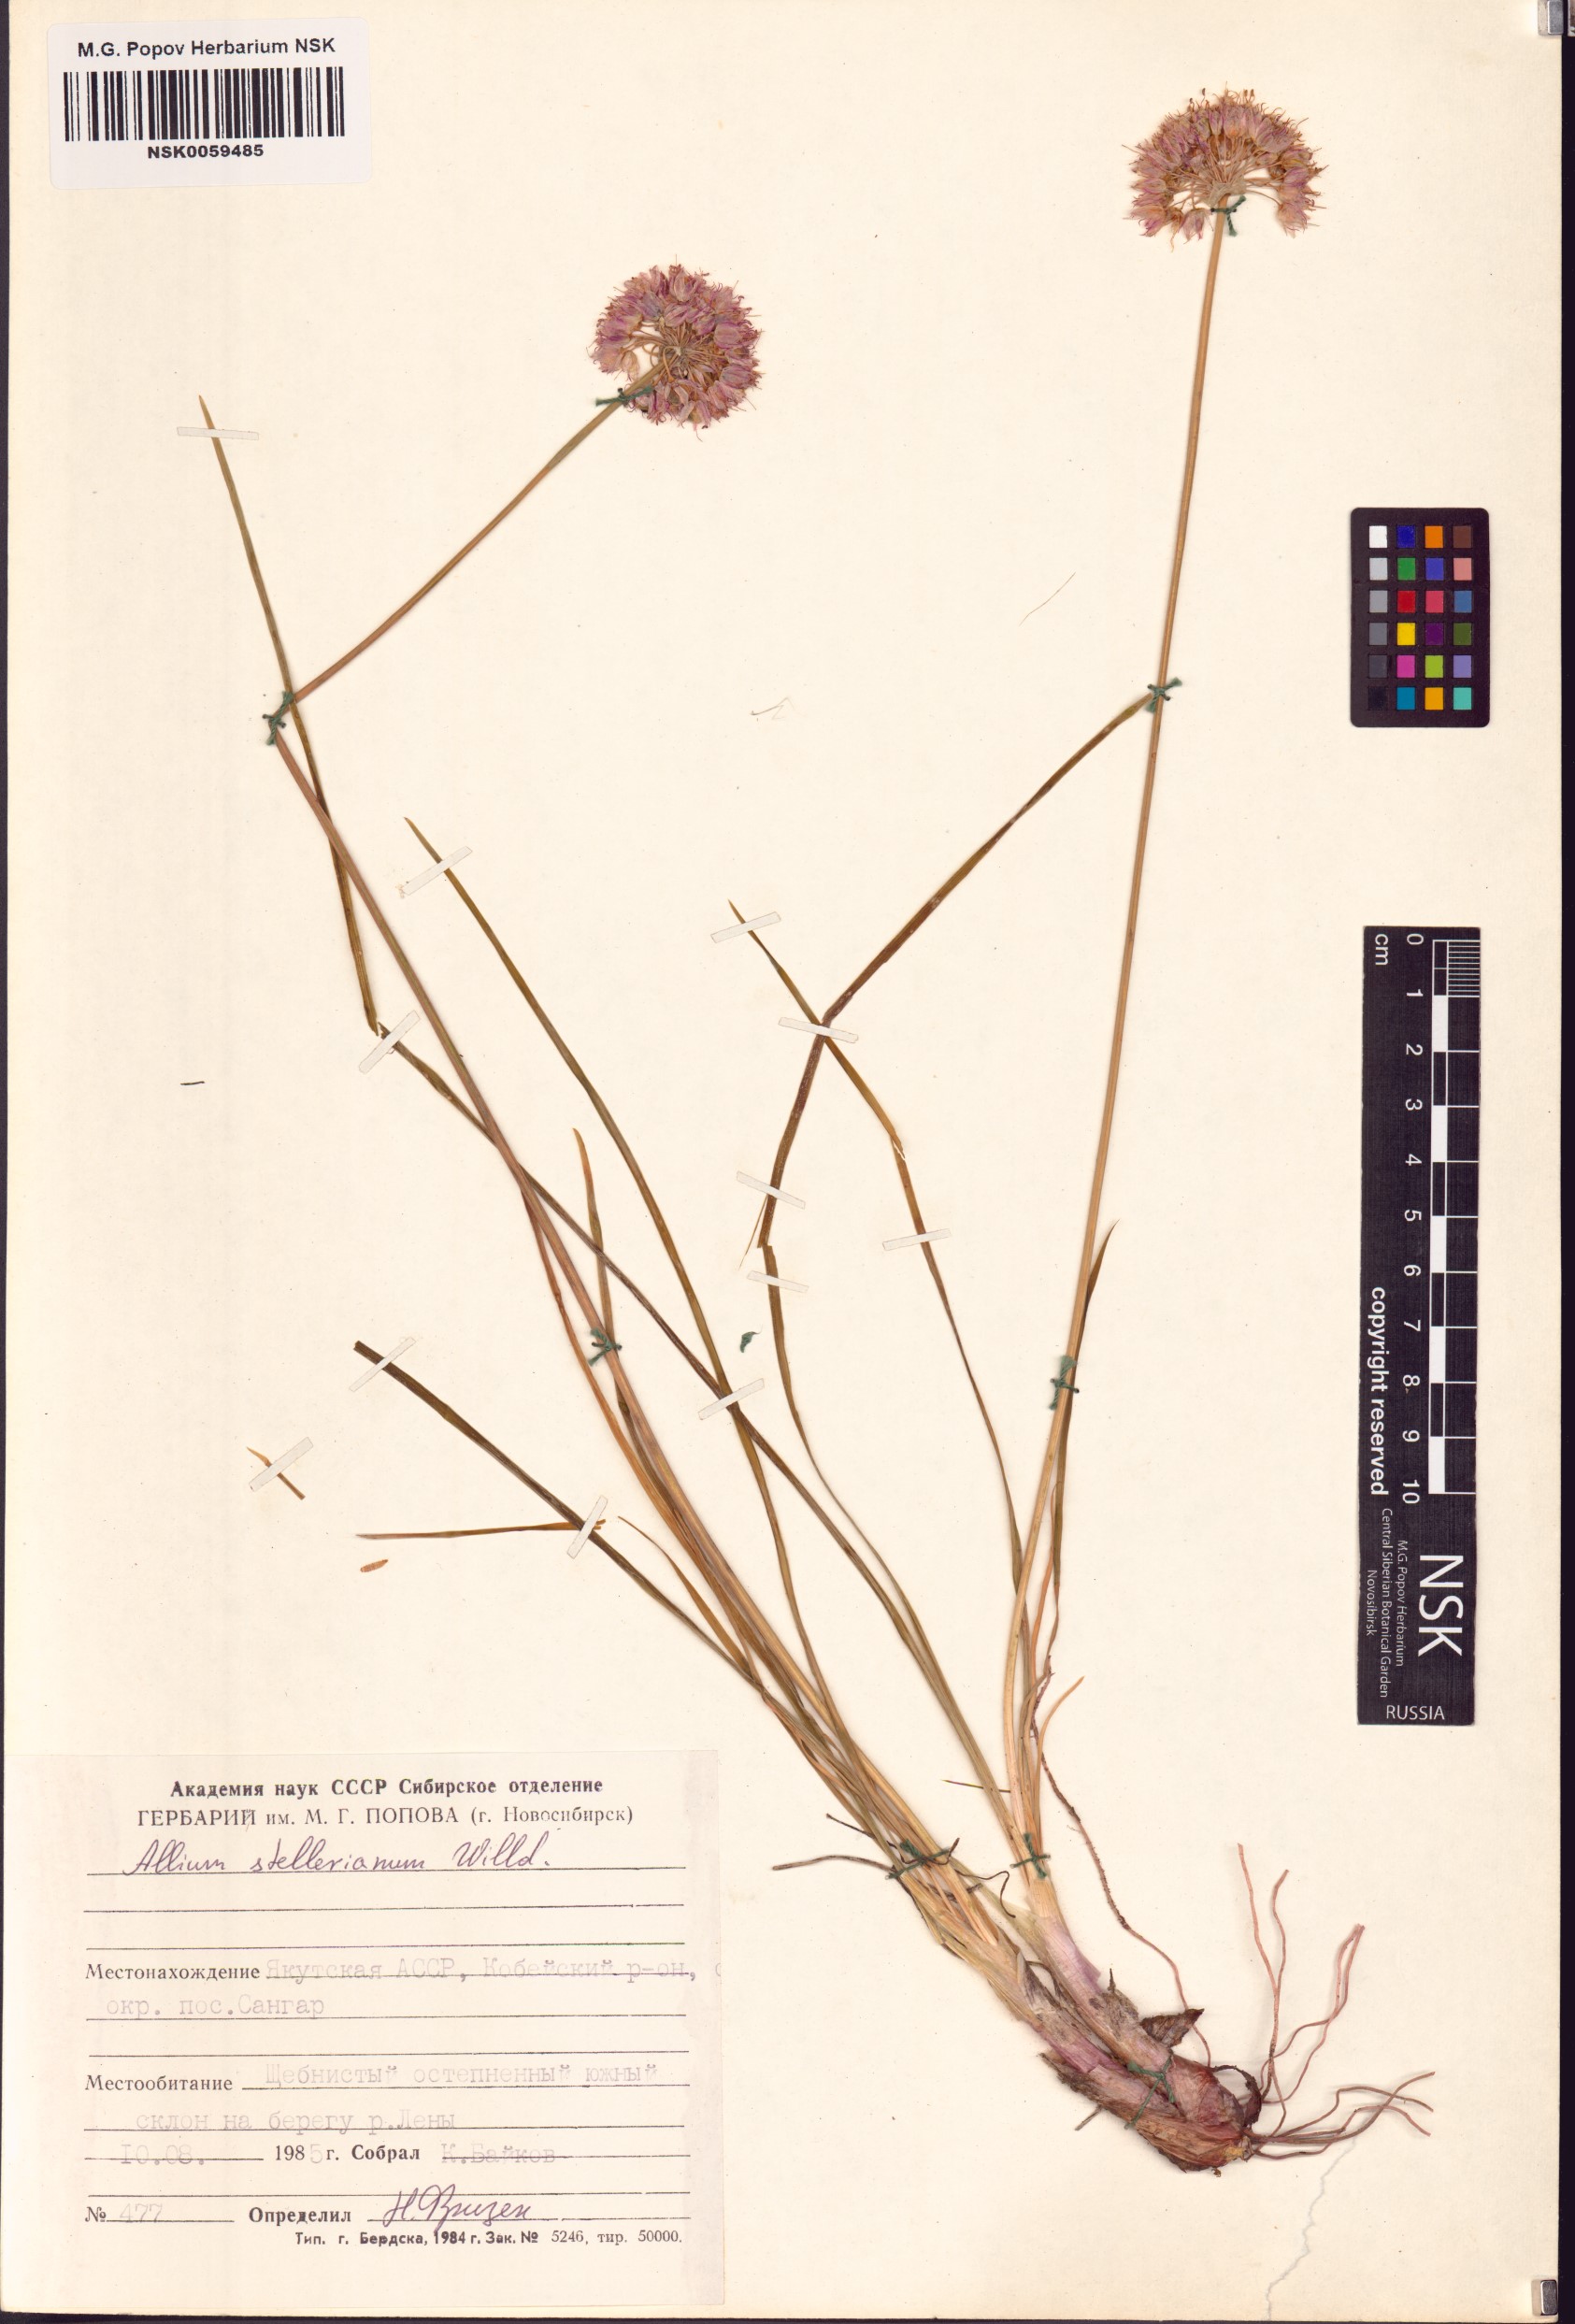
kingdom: Plantae
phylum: Tracheophyta
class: Liliopsida
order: Asparagales
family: Amaryllidaceae
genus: Allium
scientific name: Allium stellerianum
